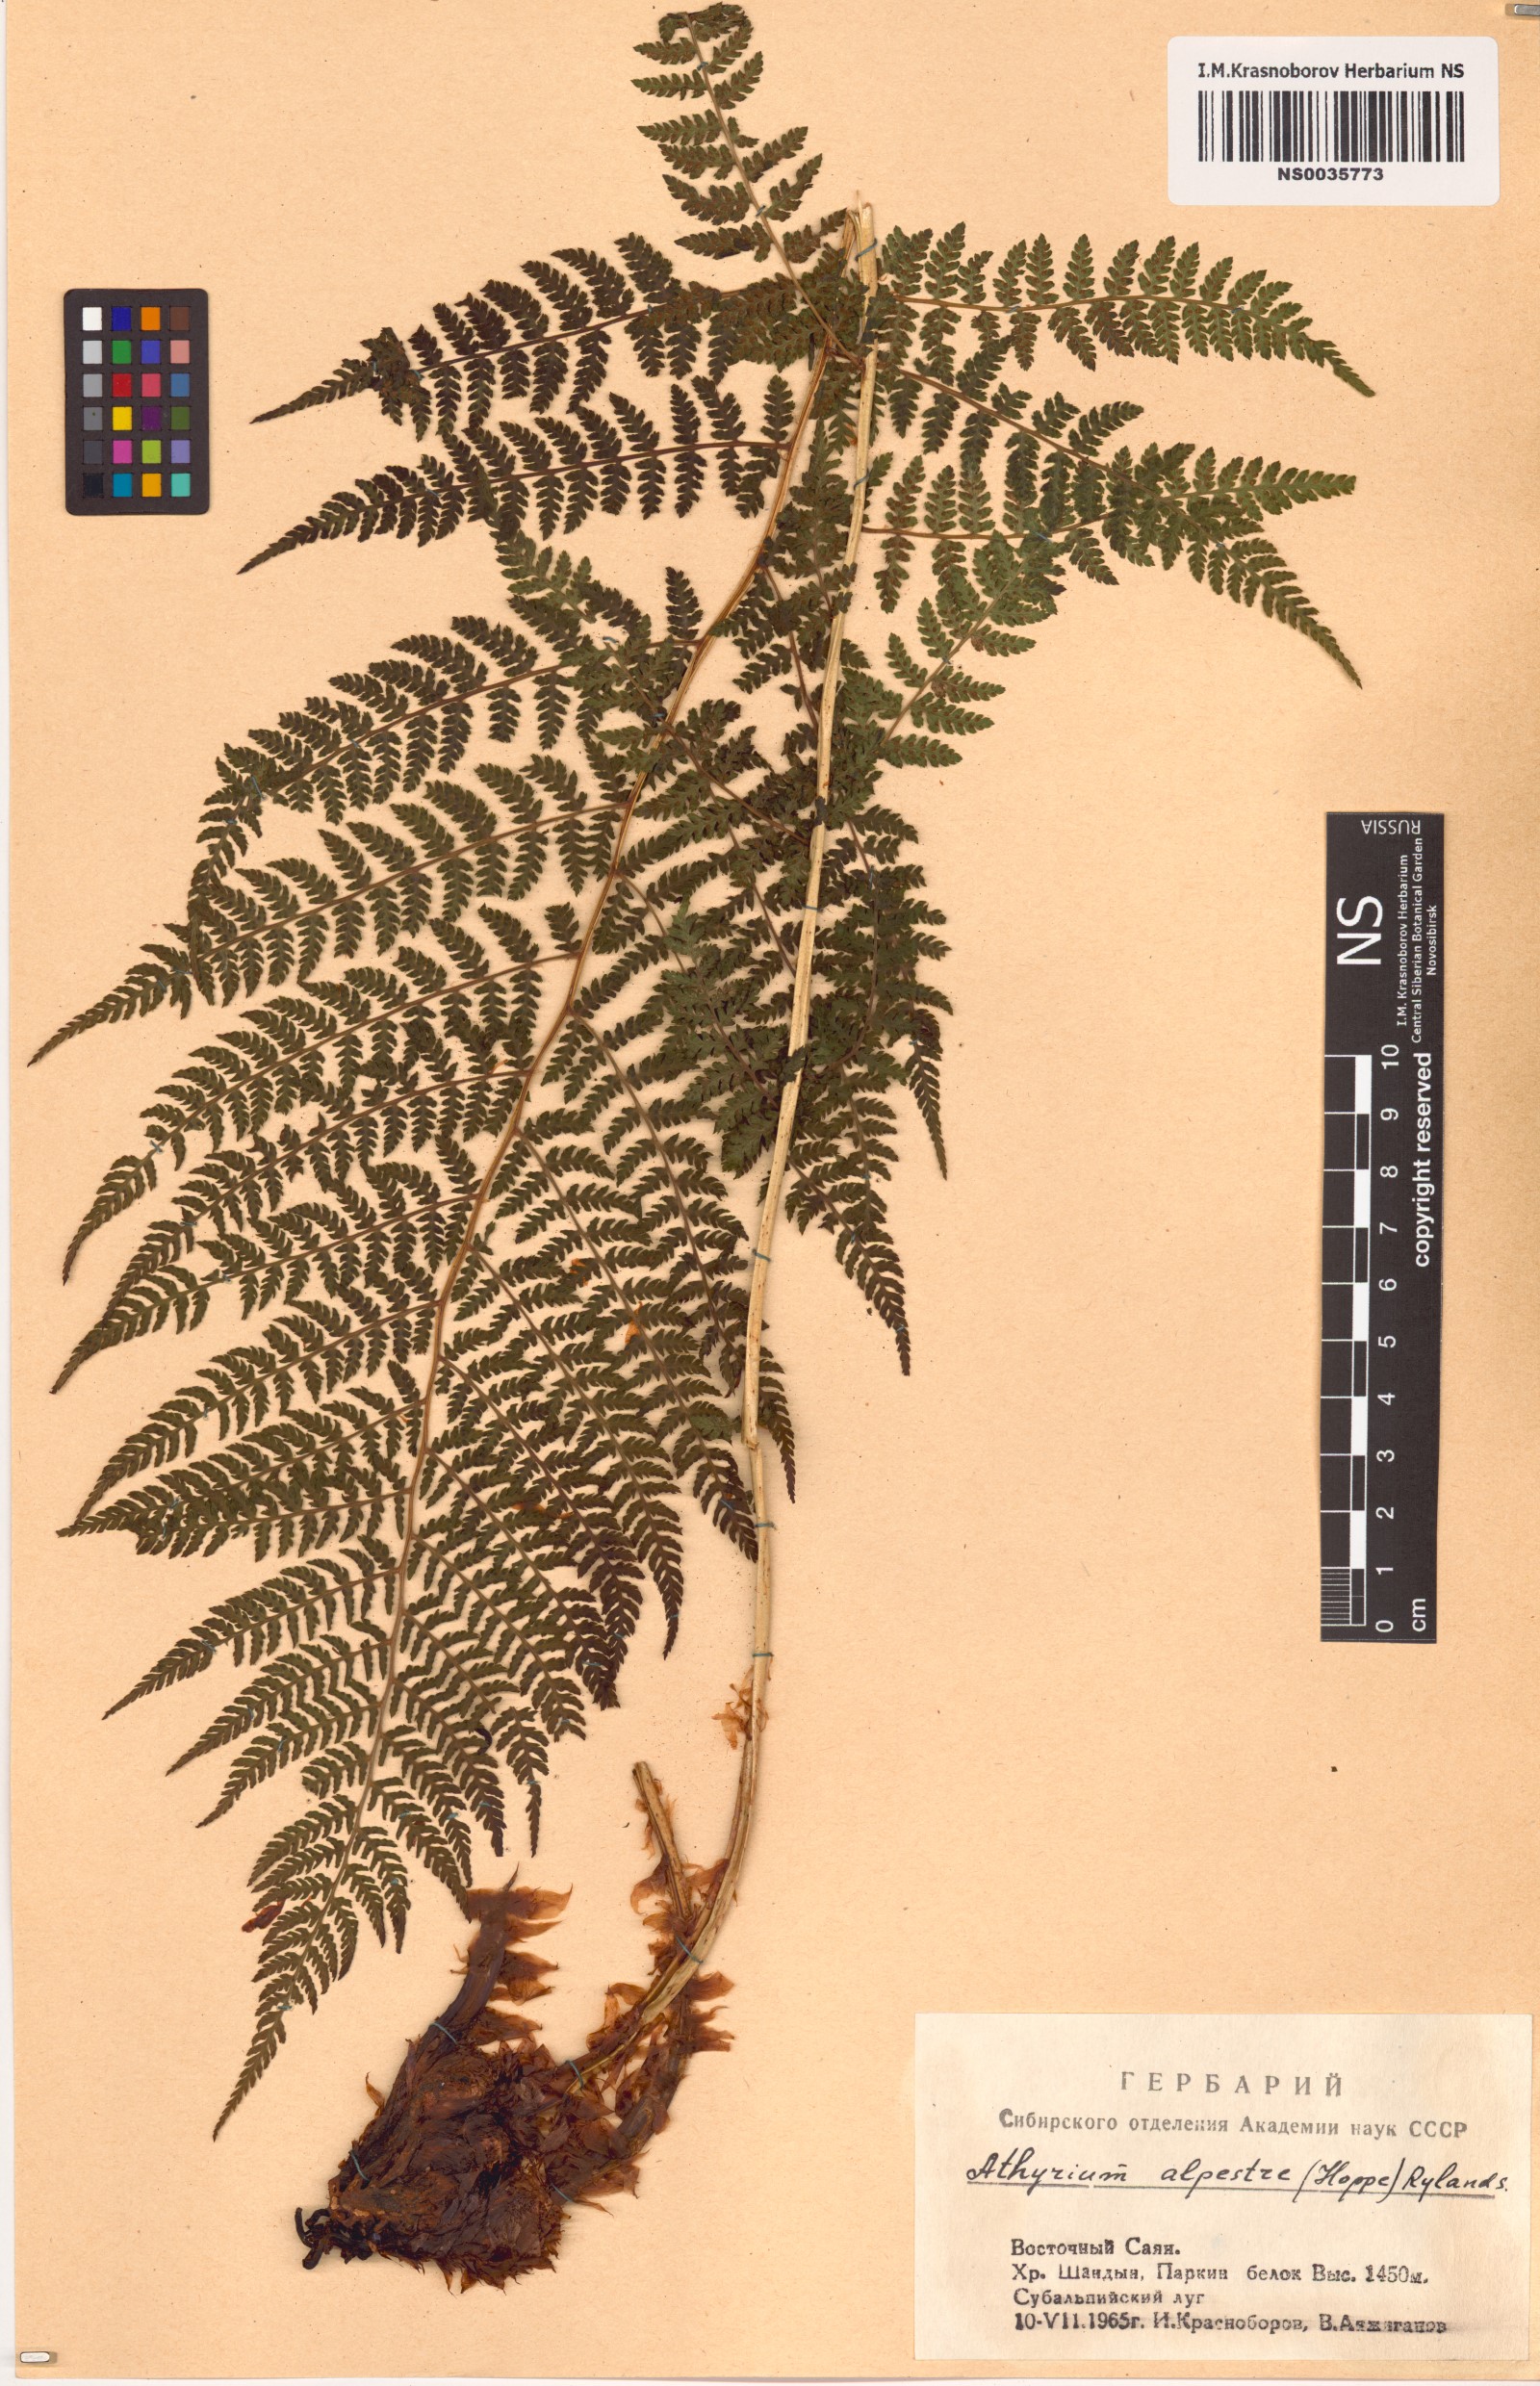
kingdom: Plantae
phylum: Tracheophyta
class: Polypodiopsida
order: Polypodiales
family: Athyriaceae
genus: Pseudathyrium
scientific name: Pseudathyrium alpestre
